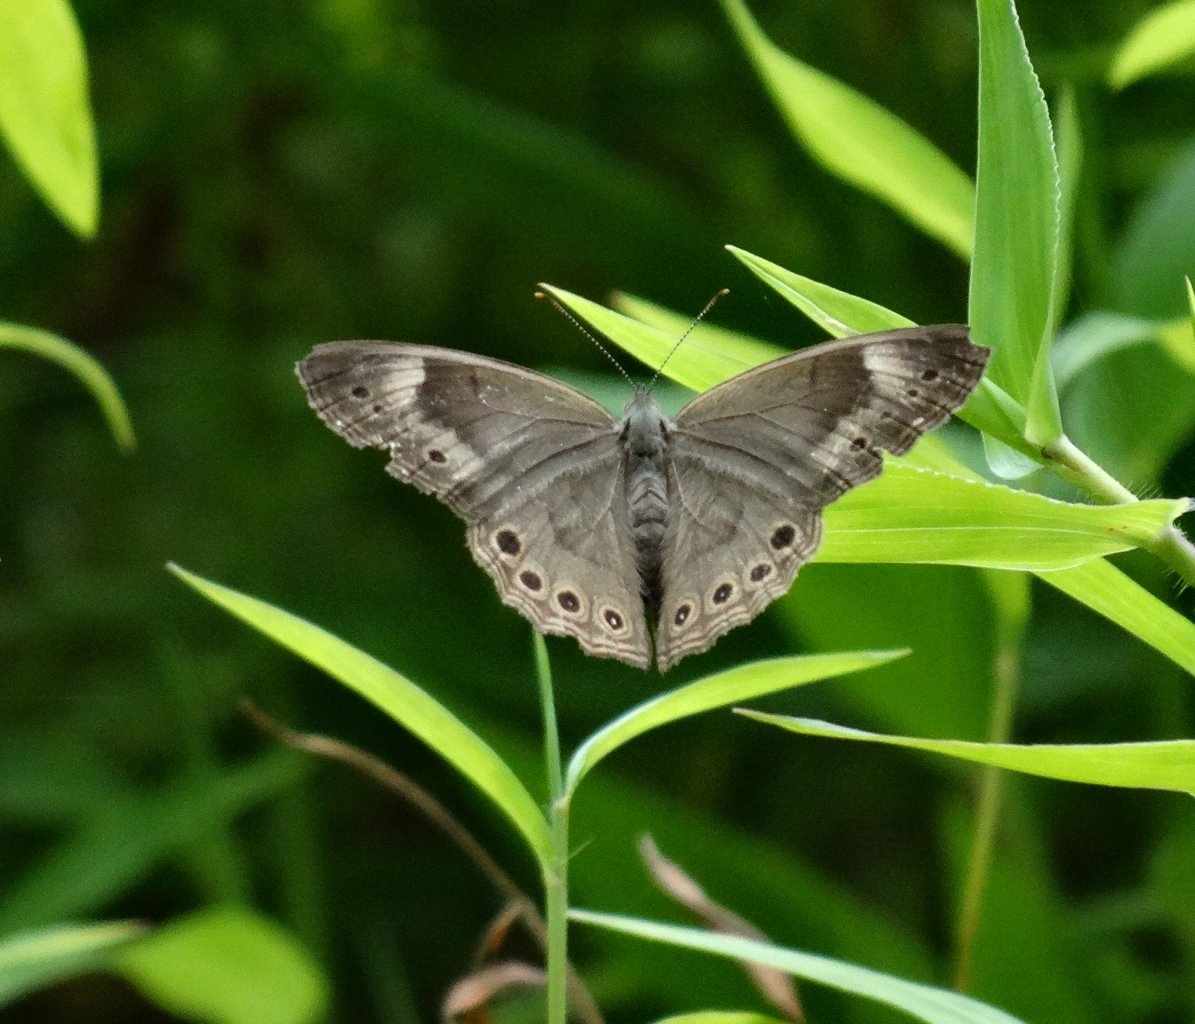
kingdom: Animalia
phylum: Arthropoda
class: Insecta
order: Lepidoptera
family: Nymphalidae
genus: Lethe
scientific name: Lethe eurydice
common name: Appalachian Eyed Brown
